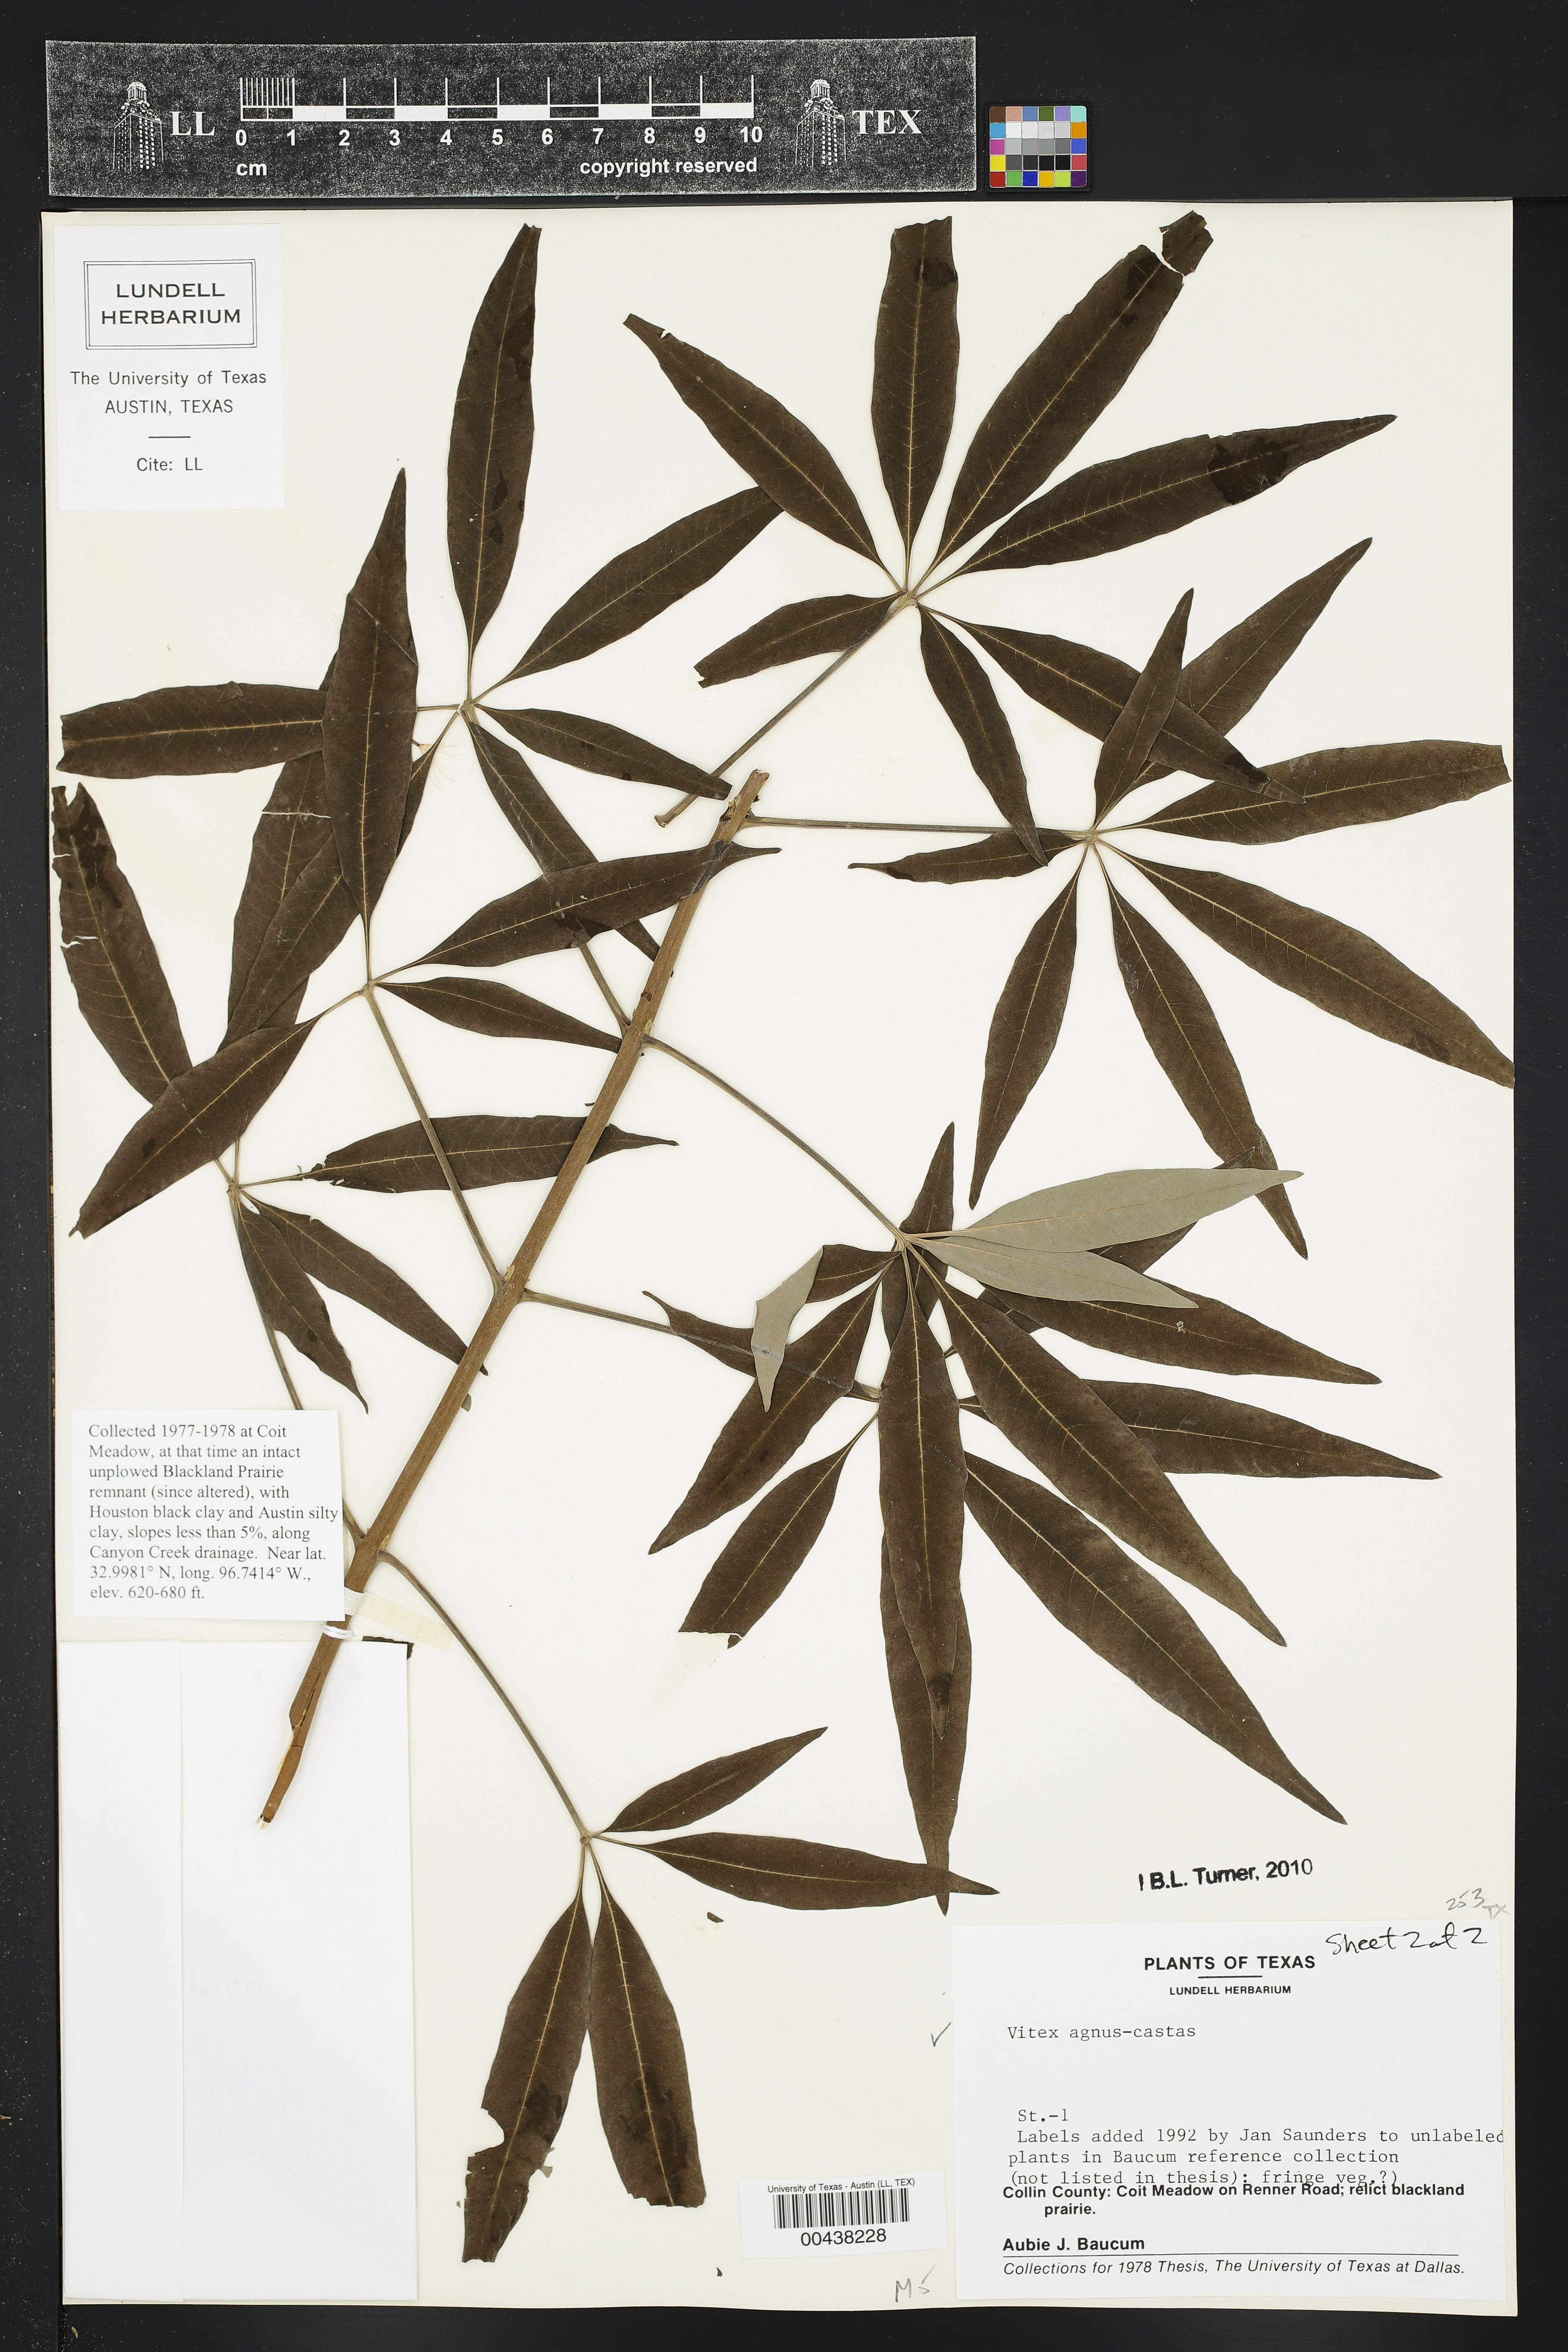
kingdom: Plantae
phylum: Tracheophyta
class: Magnoliopsida
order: Lamiales
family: Lamiaceae
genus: Vitex
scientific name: Vitex agnus-castus
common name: Chasteberry
